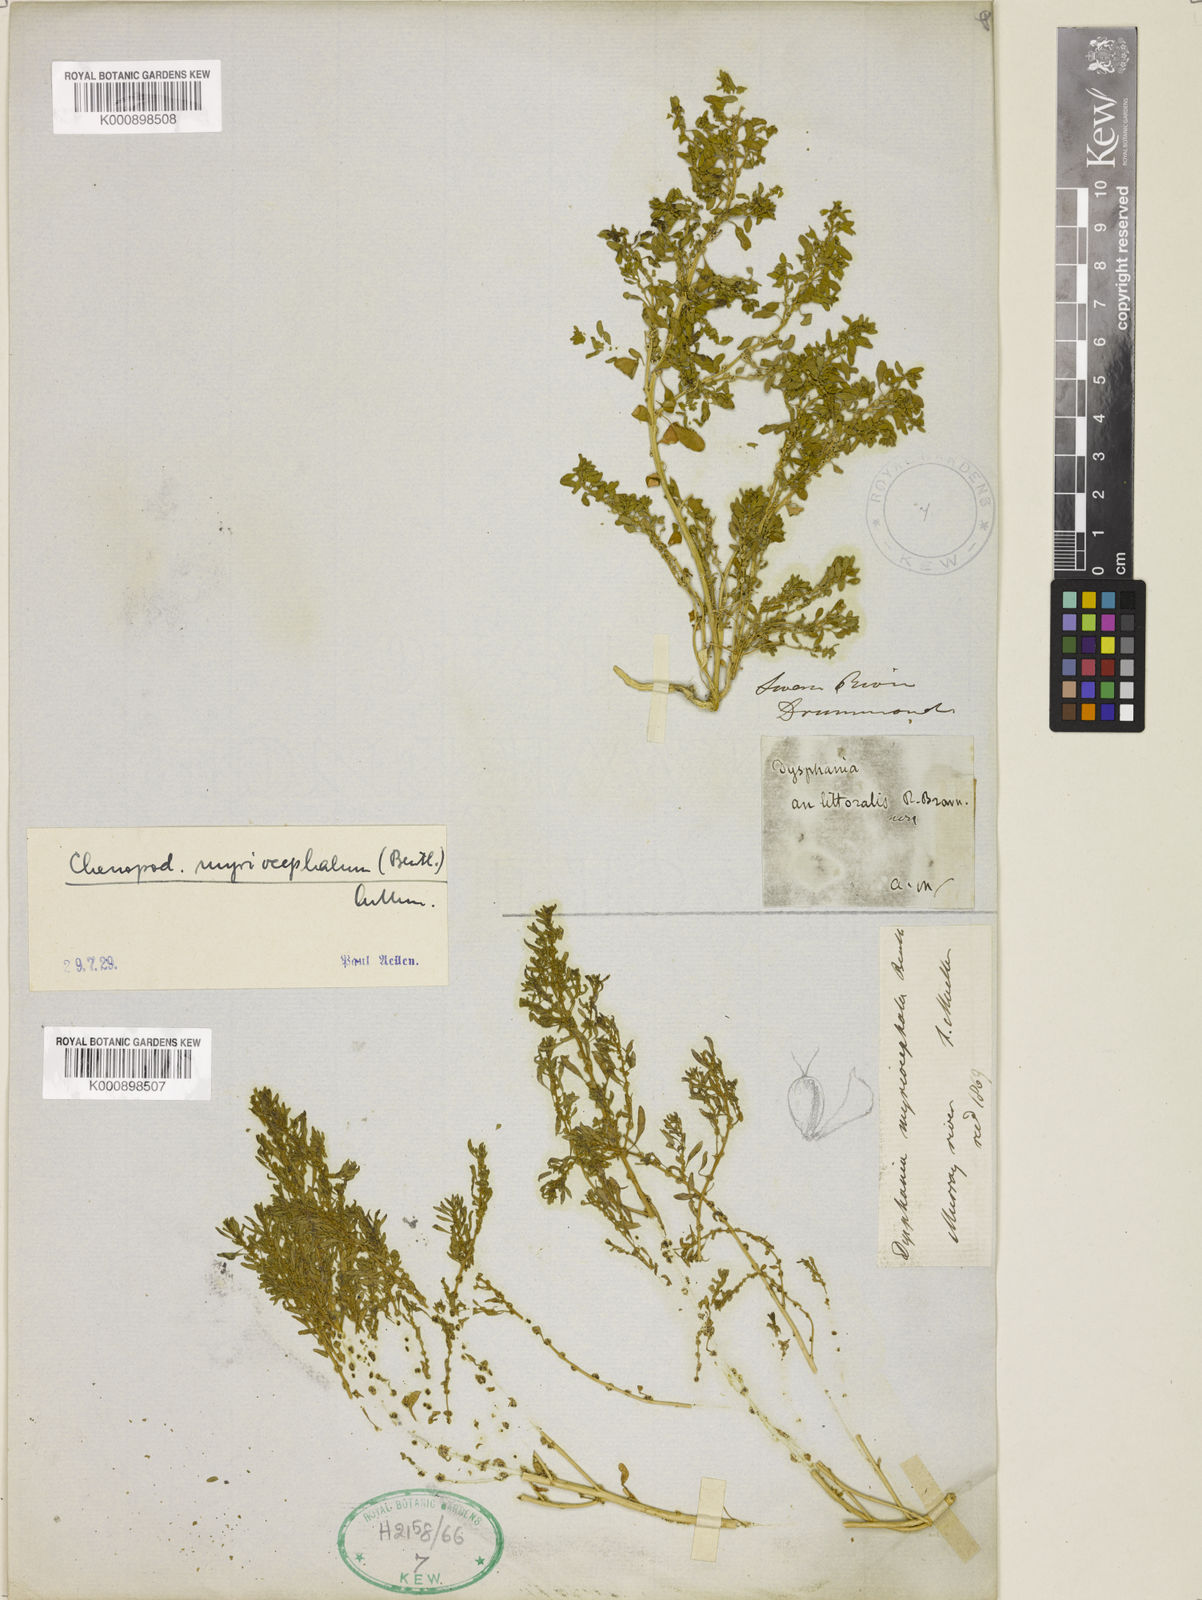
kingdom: Plantae
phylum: Tracheophyta
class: Magnoliopsida
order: Caryophyllales
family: Amaranthaceae
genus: Dysphania
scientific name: Dysphania glomulifera
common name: Australian pigweed
